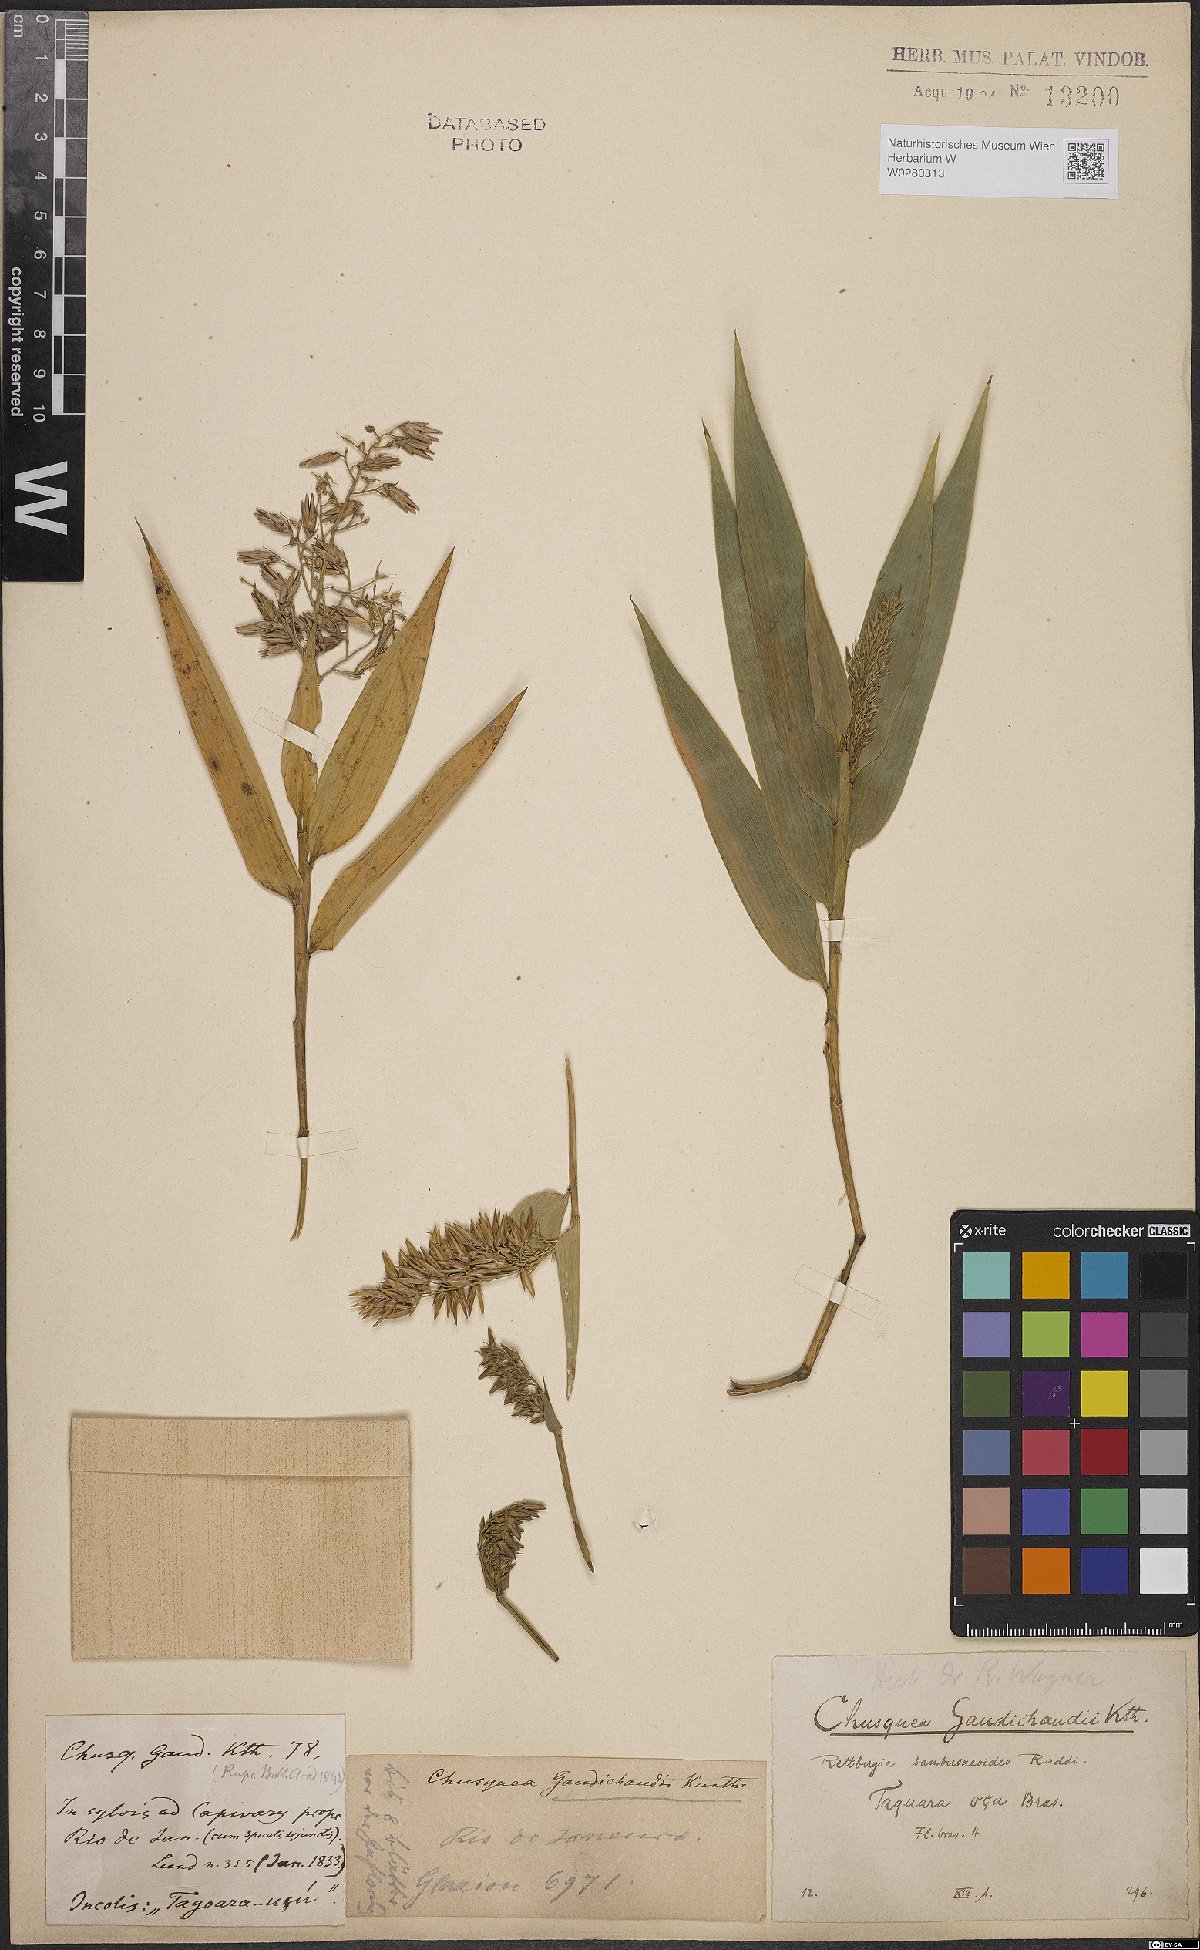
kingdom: Plantae
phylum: Tracheophyta
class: Liliopsida
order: Poales
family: Poaceae
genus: Chusquea
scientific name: Chusquea bambusoides
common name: Brazil scrambling bamboo
